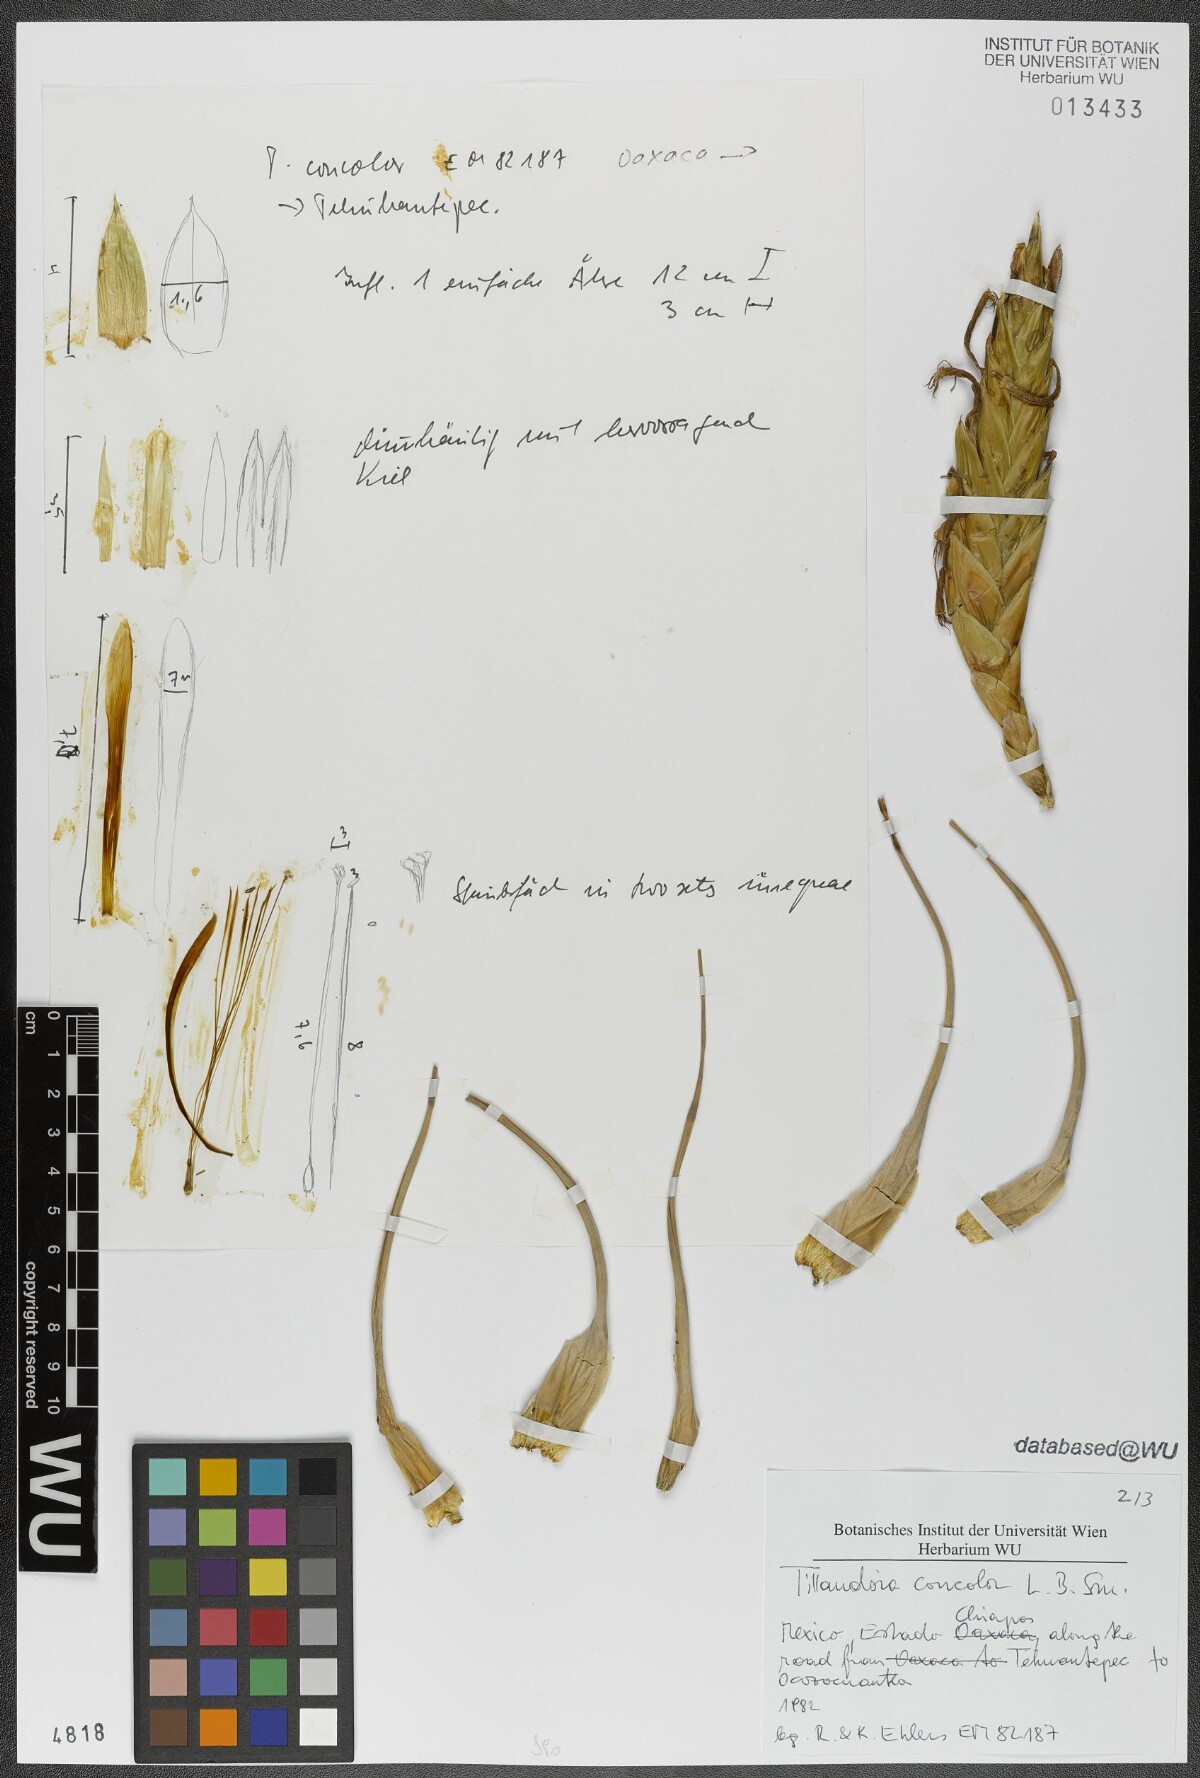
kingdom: Plantae
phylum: Tracheophyta
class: Liliopsida
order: Poales
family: Bromeliaceae
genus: Tillandsia
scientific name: Tillandsia concolor
